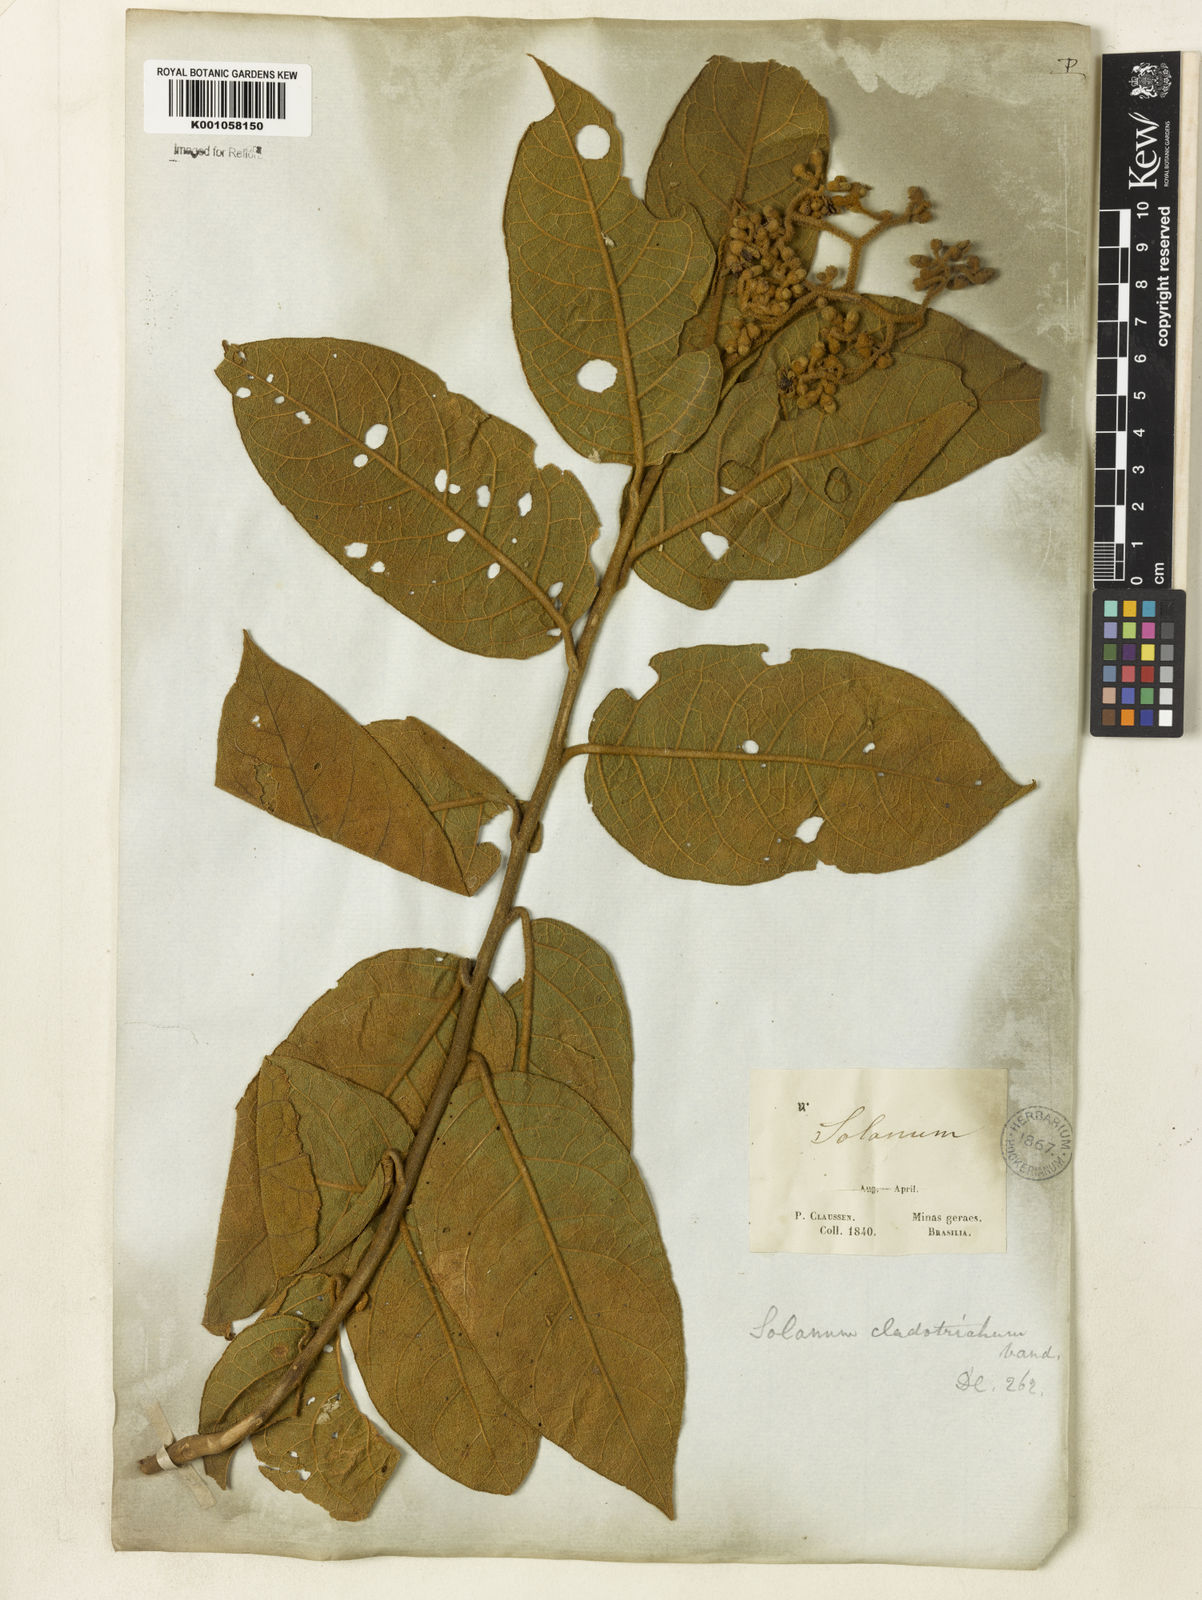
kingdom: Plantae
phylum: Tracheophyta
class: Magnoliopsida
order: Solanales
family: Solanaceae
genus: Solanum
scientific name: Solanum jussiaei
